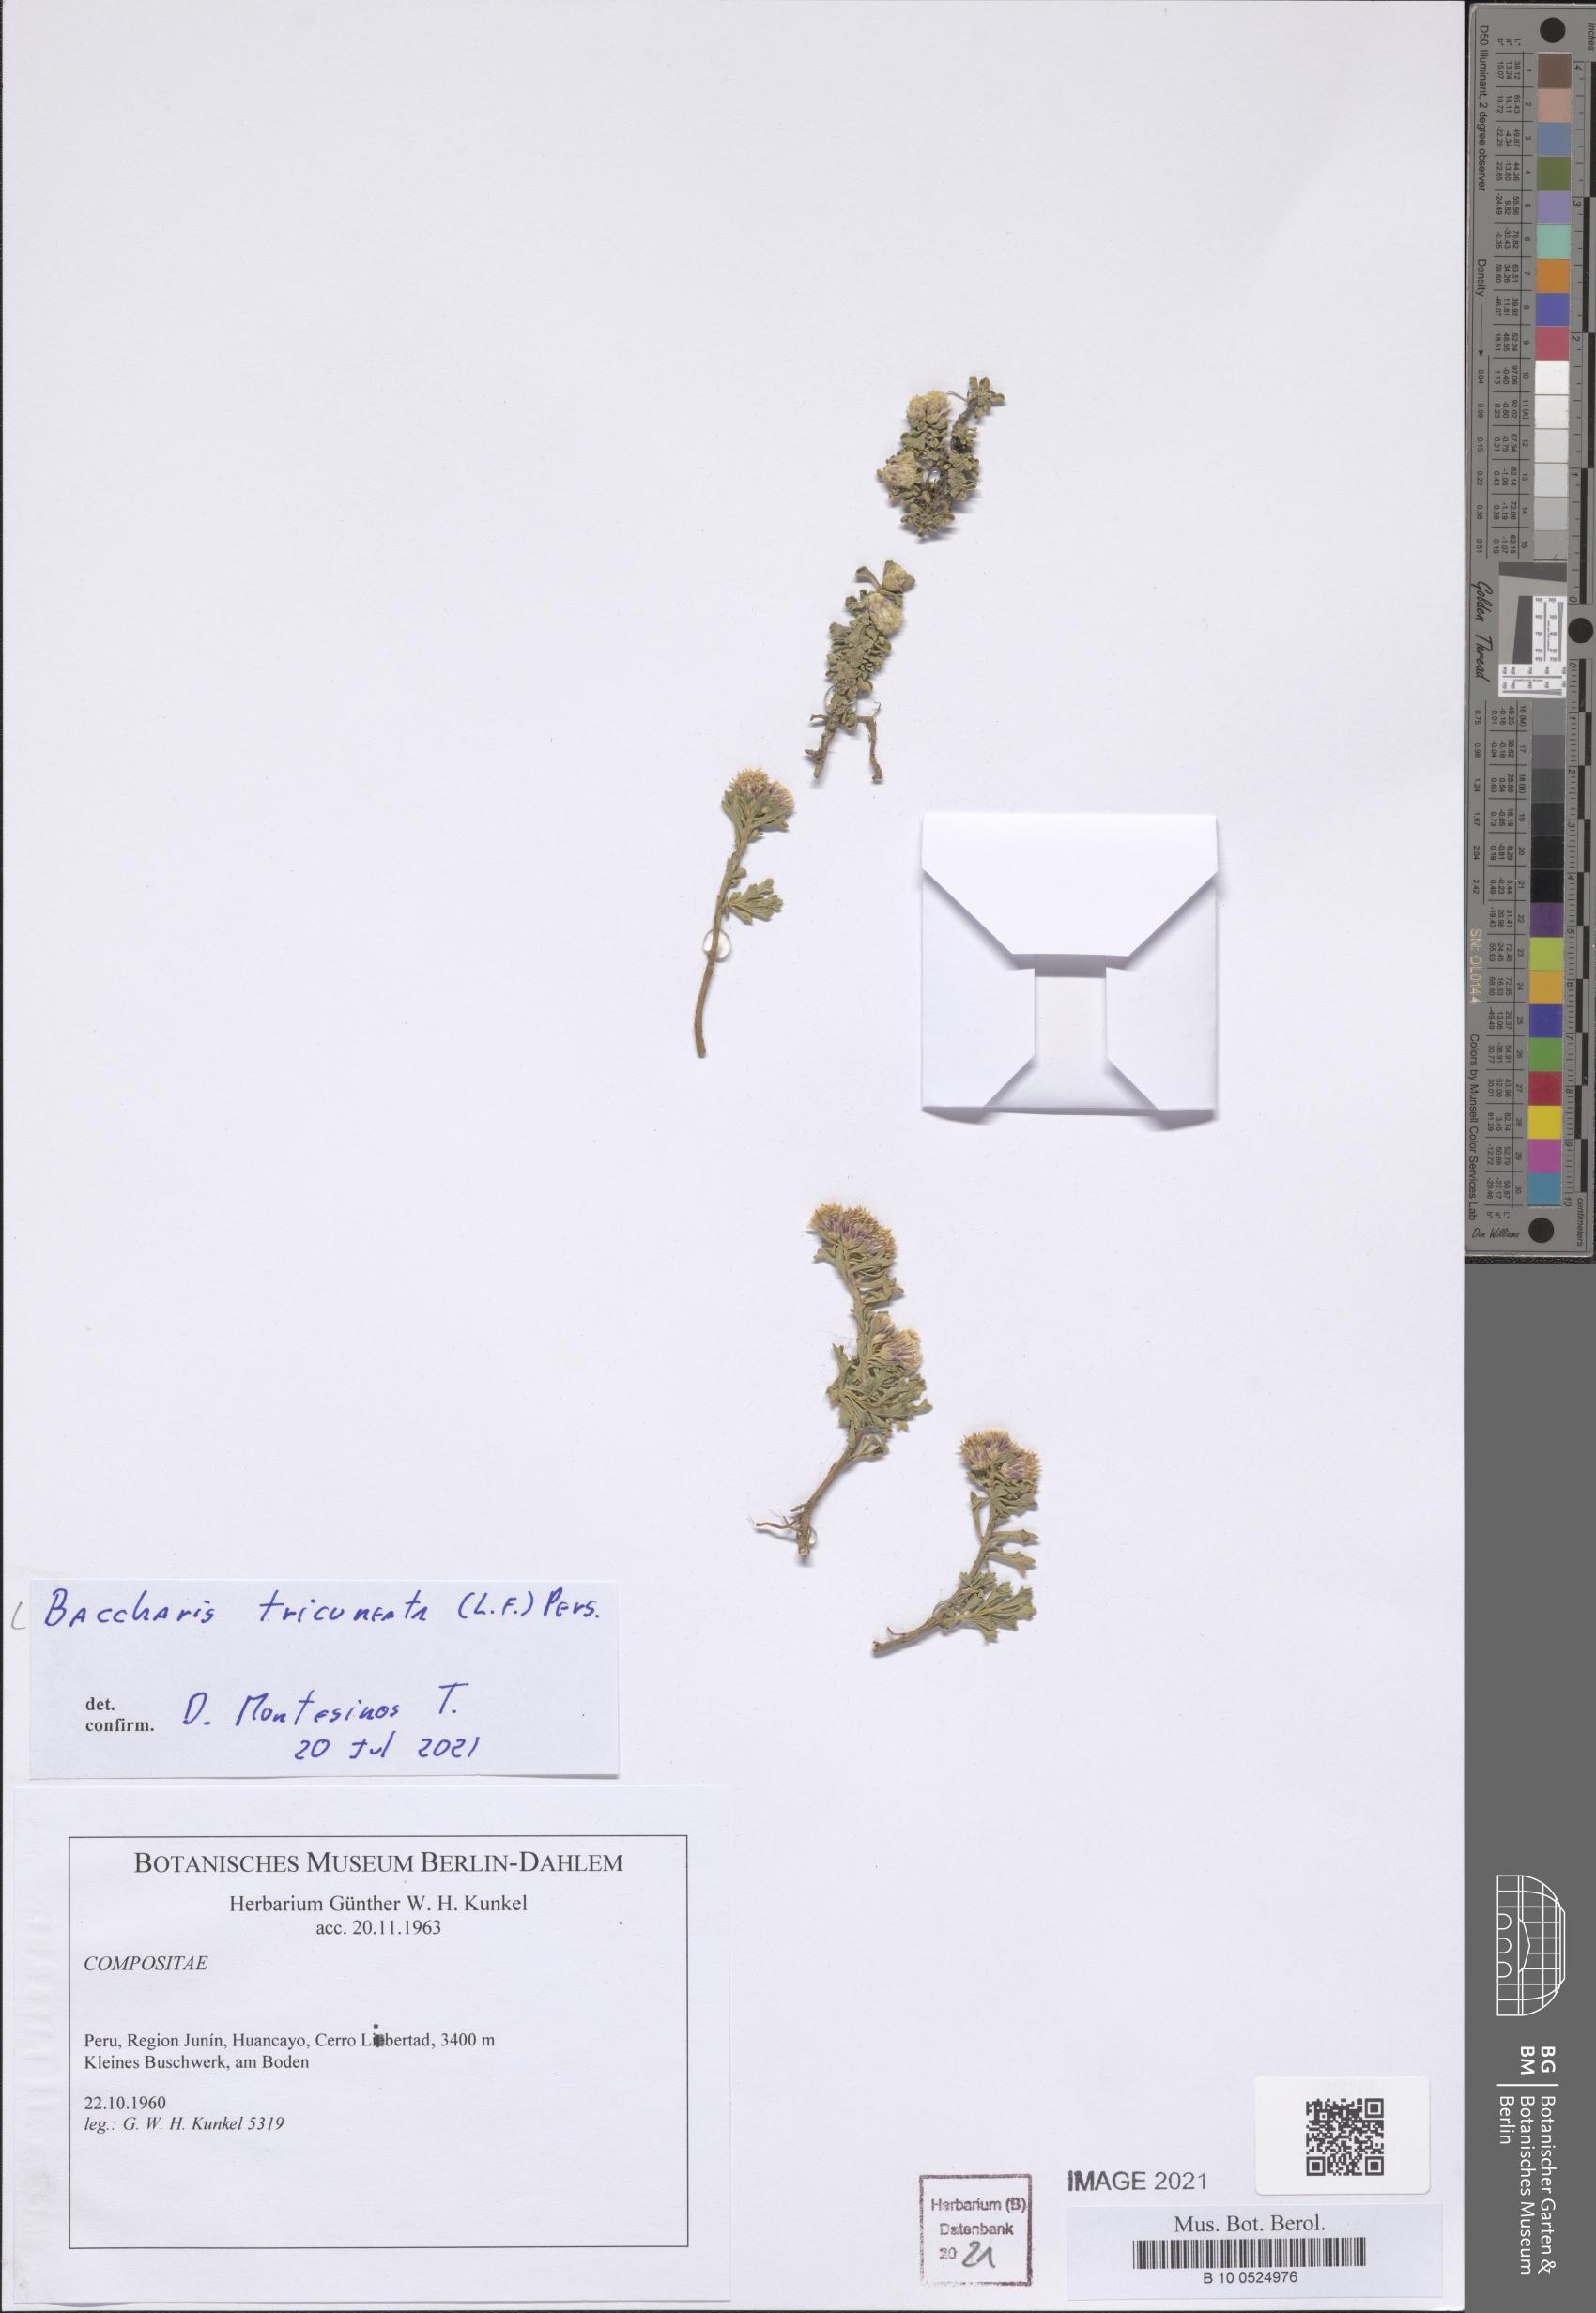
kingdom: Plantae
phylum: Tracheophyta
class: Magnoliopsida
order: Asterales
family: Asteraceae
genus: Baccharis
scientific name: Baccharis tricuneata
